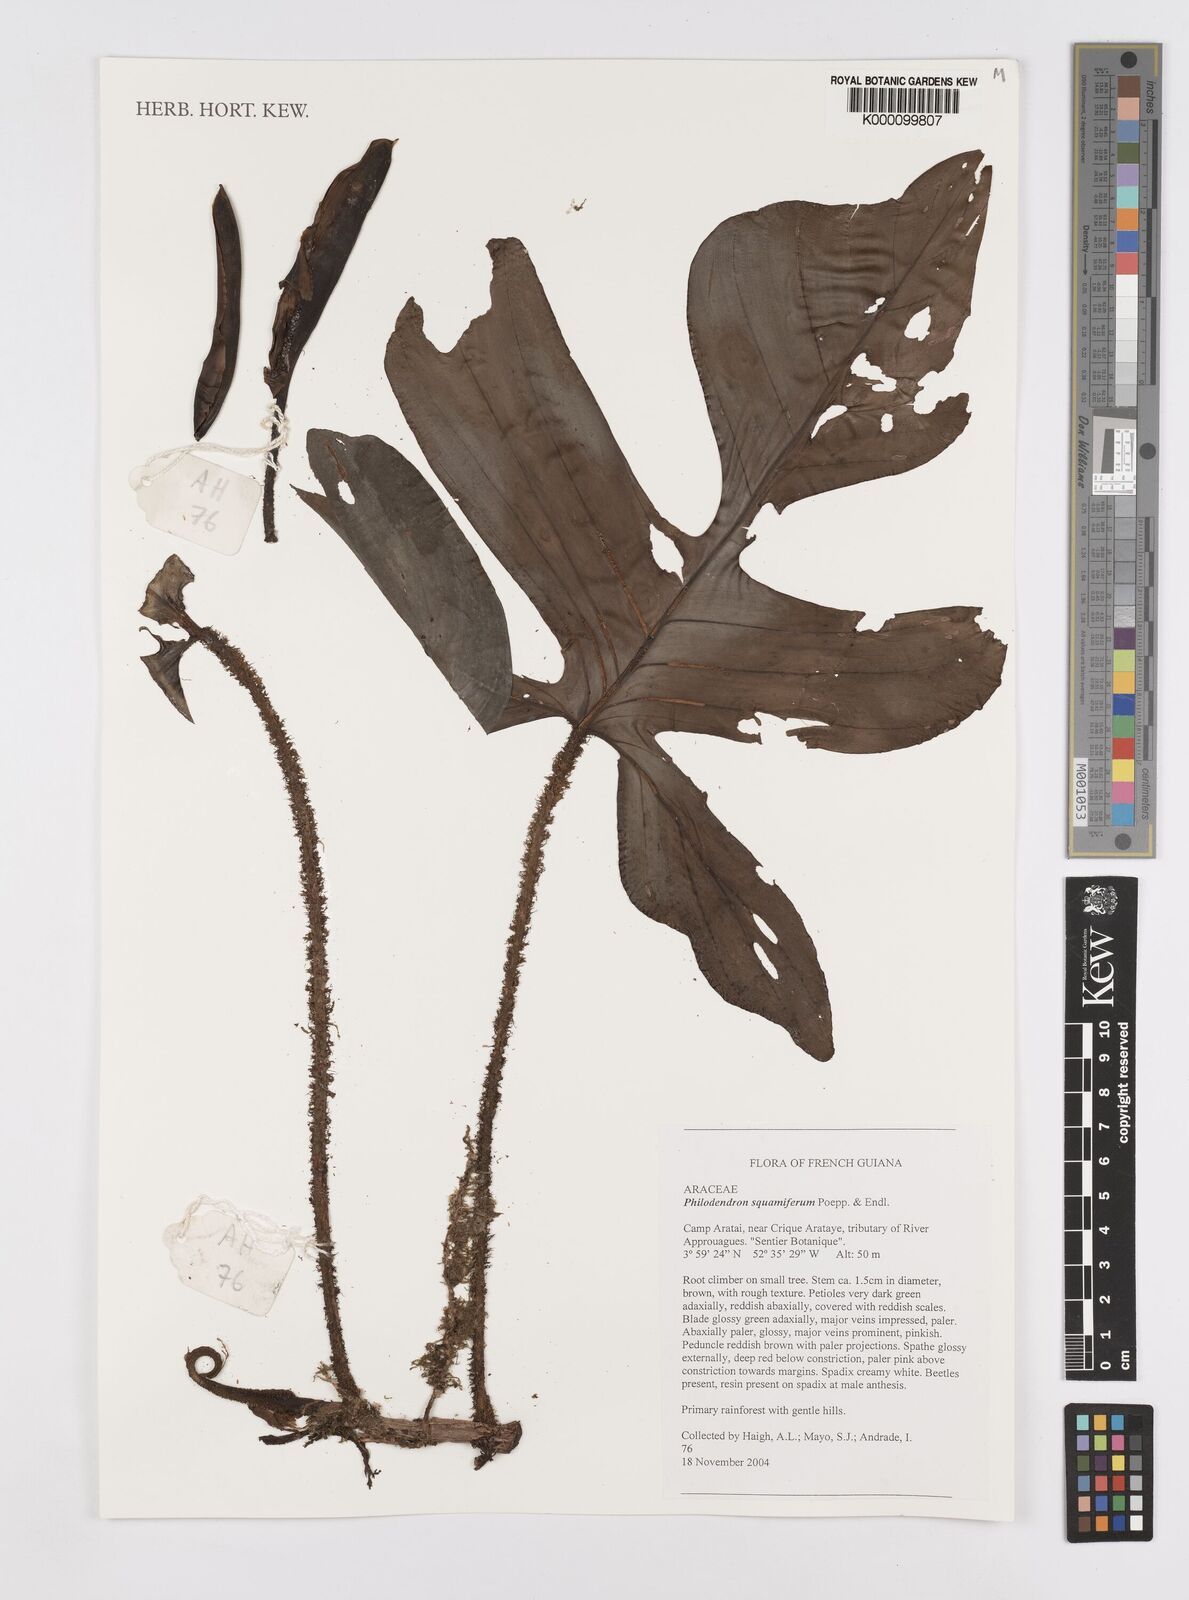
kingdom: Plantae
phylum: Tracheophyta
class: Liliopsida
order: Alismatales
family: Araceae
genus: Philodendron
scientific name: Philodendron squamiferum
